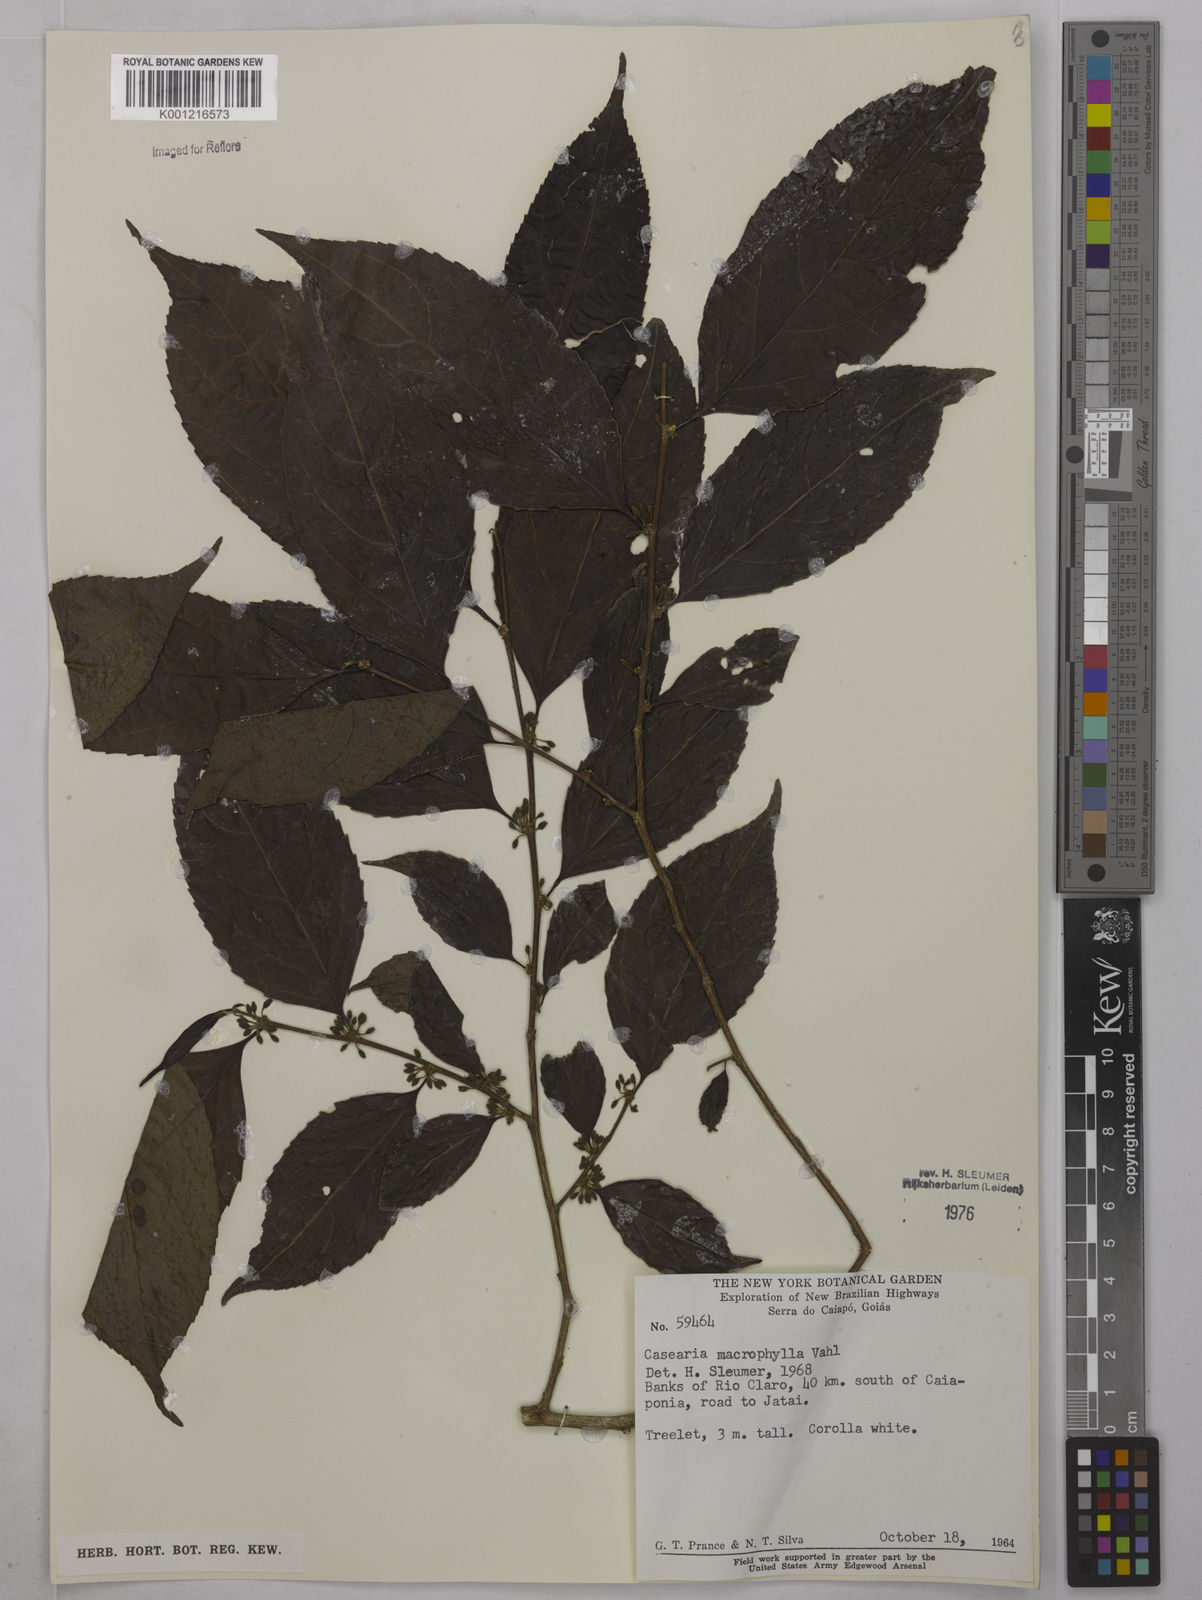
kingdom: Plantae
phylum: Tracheophyta
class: Magnoliopsida
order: Malpighiales
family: Salicaceae
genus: Casearia
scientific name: Casearia pitumba
